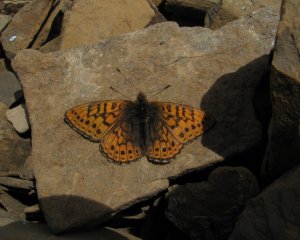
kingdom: Animalia
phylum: Arthropoda
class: Insecta
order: Lepidoptera
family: Nymphalidae
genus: Clossiana
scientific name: Clossiana astarte
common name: Astarte Fritillary
